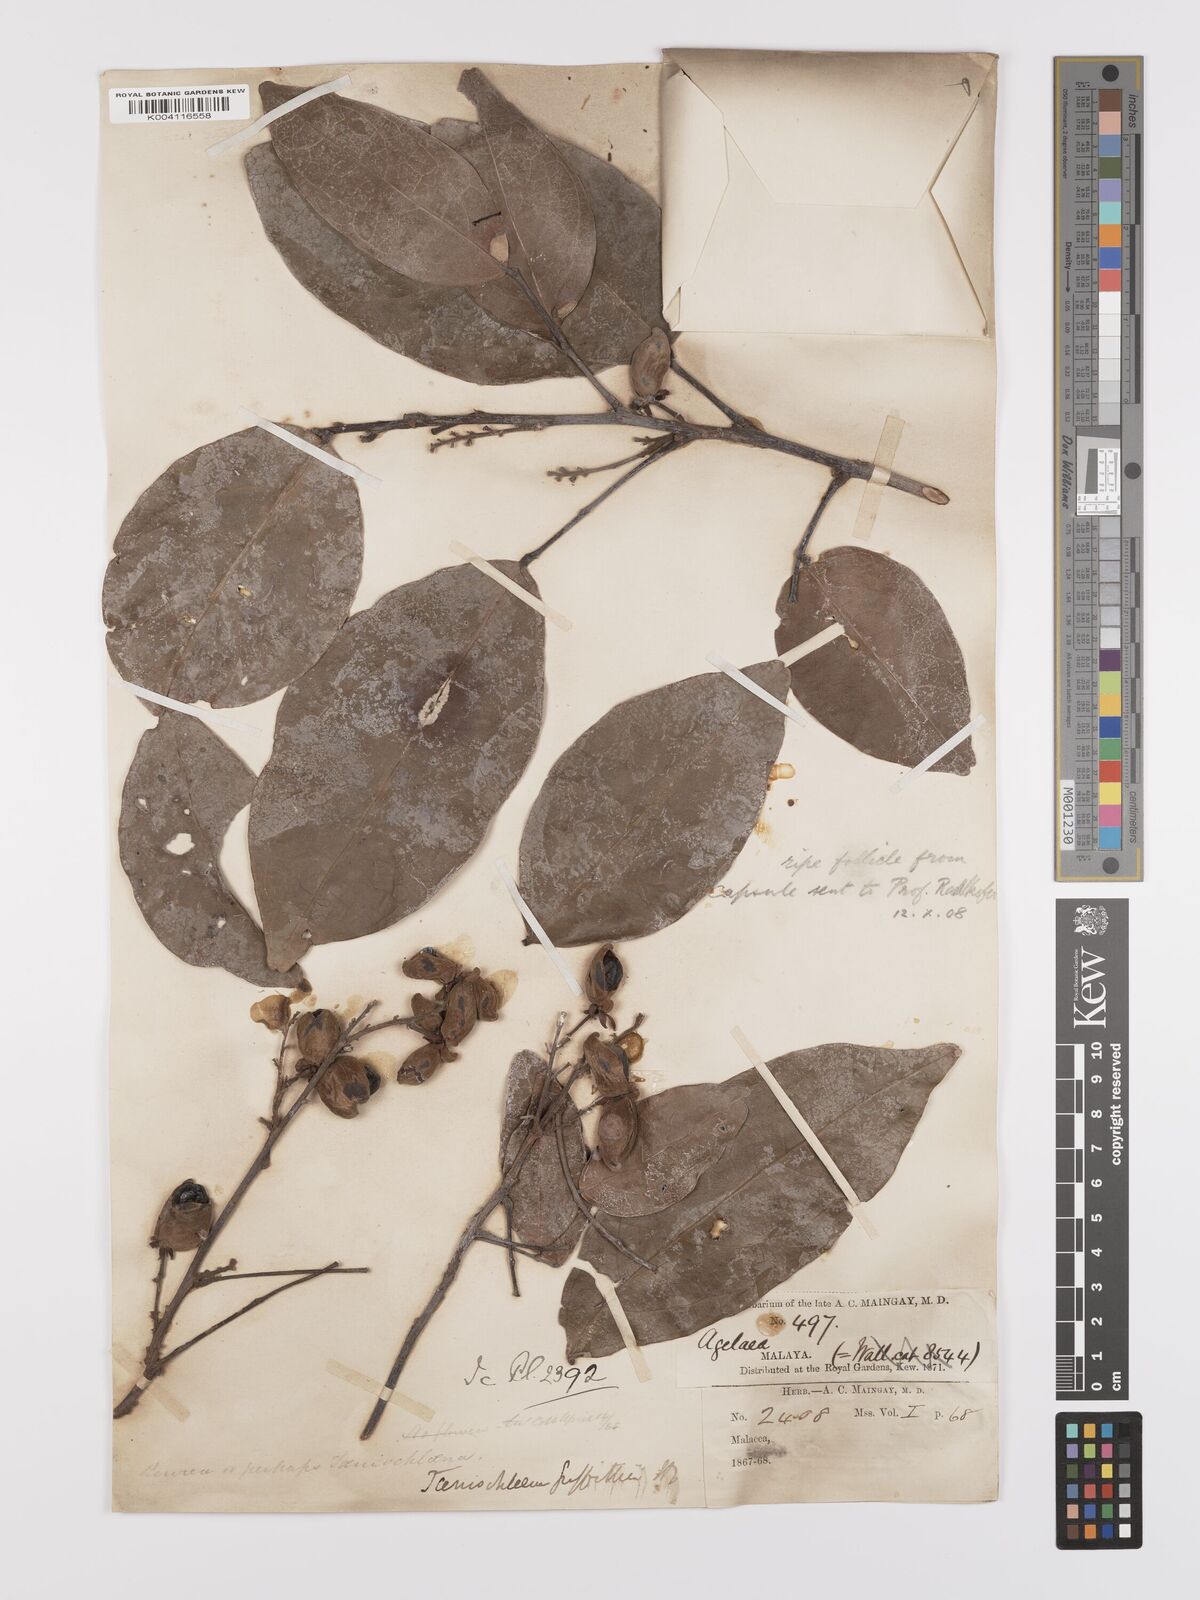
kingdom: Plantae
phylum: Tracheophyta
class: Magnoliopsida
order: Oxalidales
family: Connaraceae
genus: Rourea
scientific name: Rourea acutipetala
